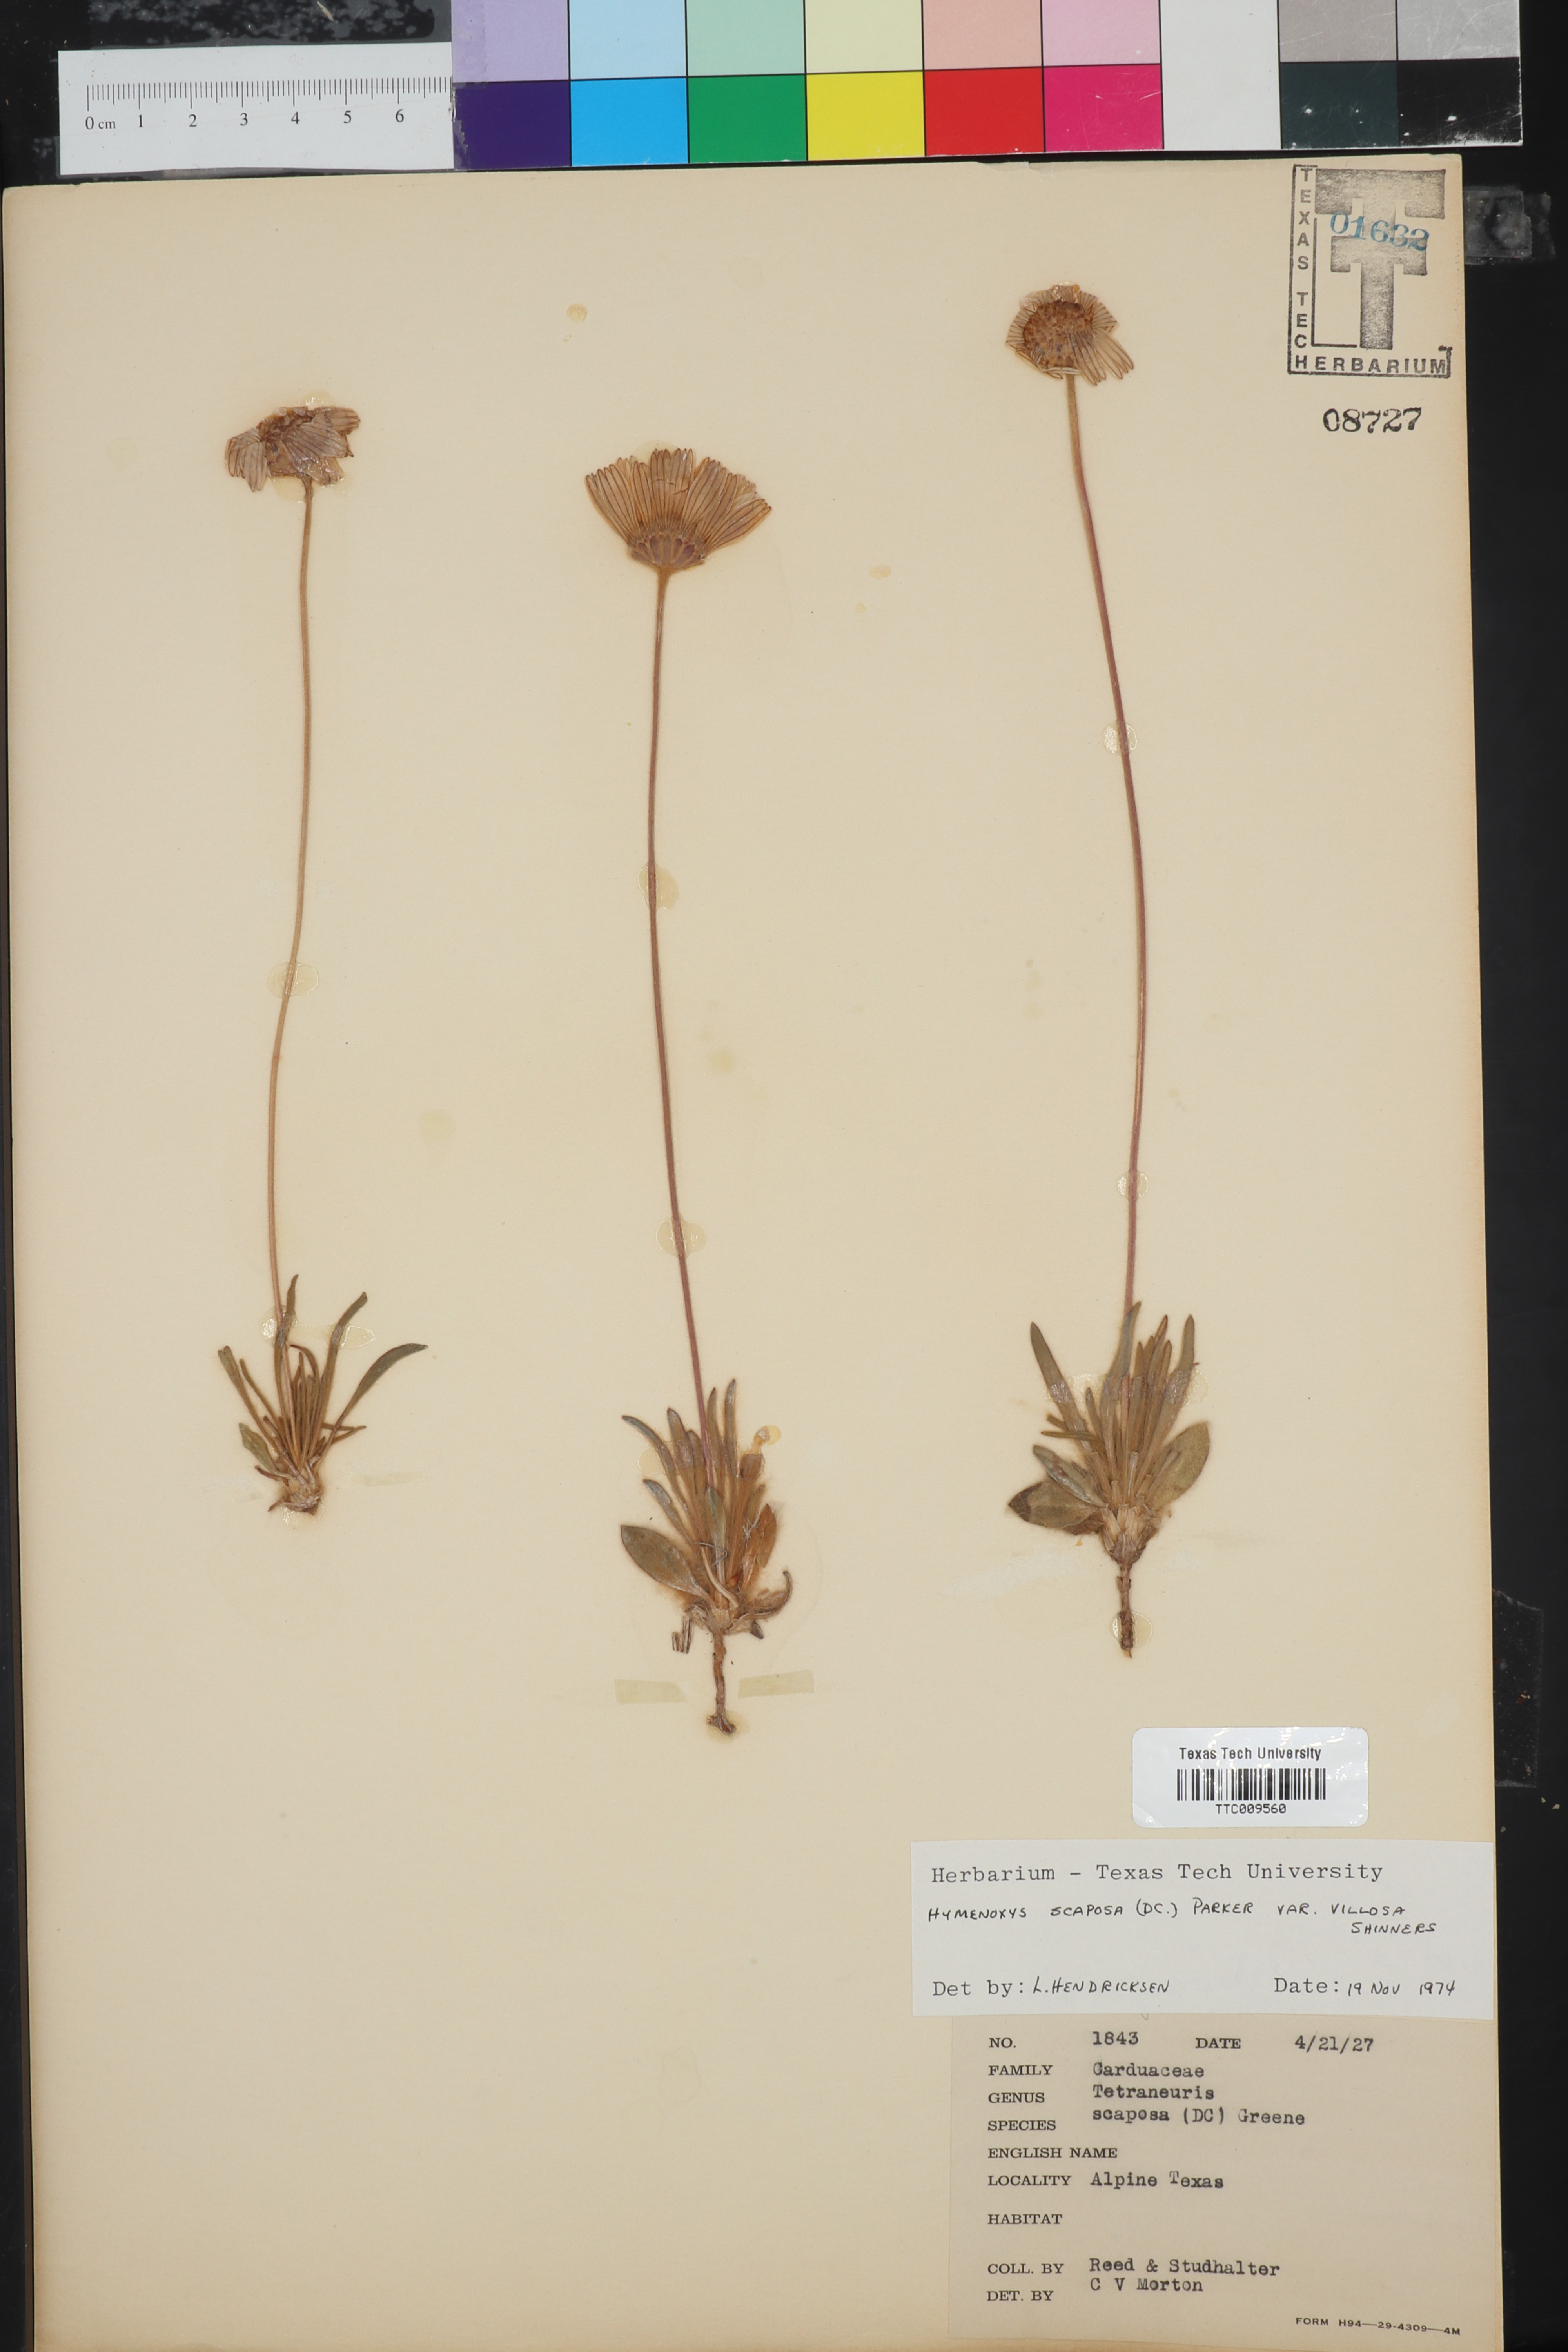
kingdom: Plantae
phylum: Tracheophyta
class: Magnoliopsida
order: Asterales
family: Asteraceae
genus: Tetraneuris
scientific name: Tetraneuris scaposa
